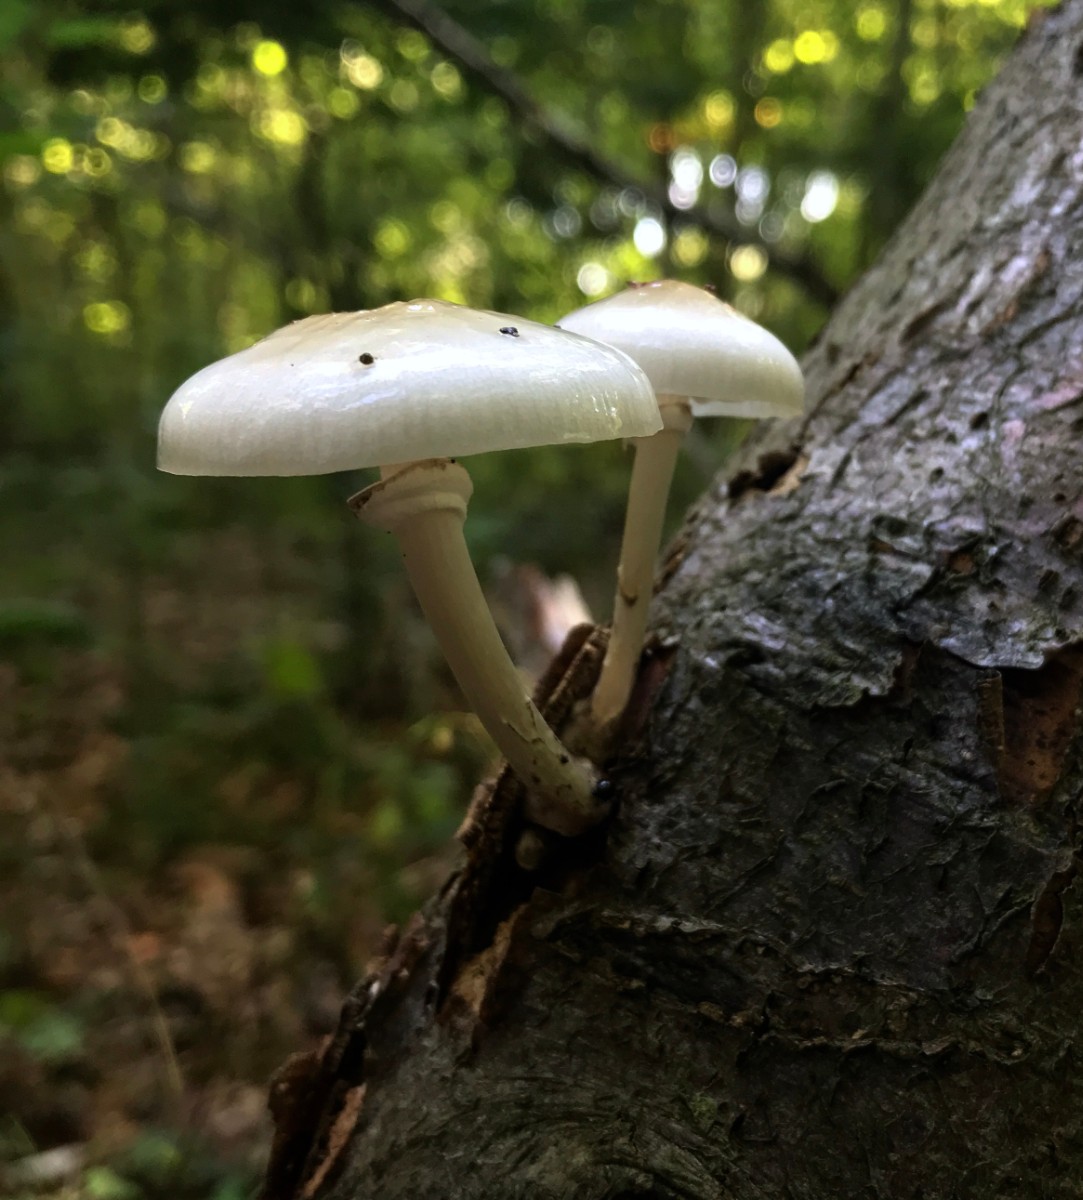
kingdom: Fungi
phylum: Basidiomycota
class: Agaricomycetes
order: Agaricales
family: Physalacriaceae
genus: Mucidula
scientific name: Mucidula mucida
